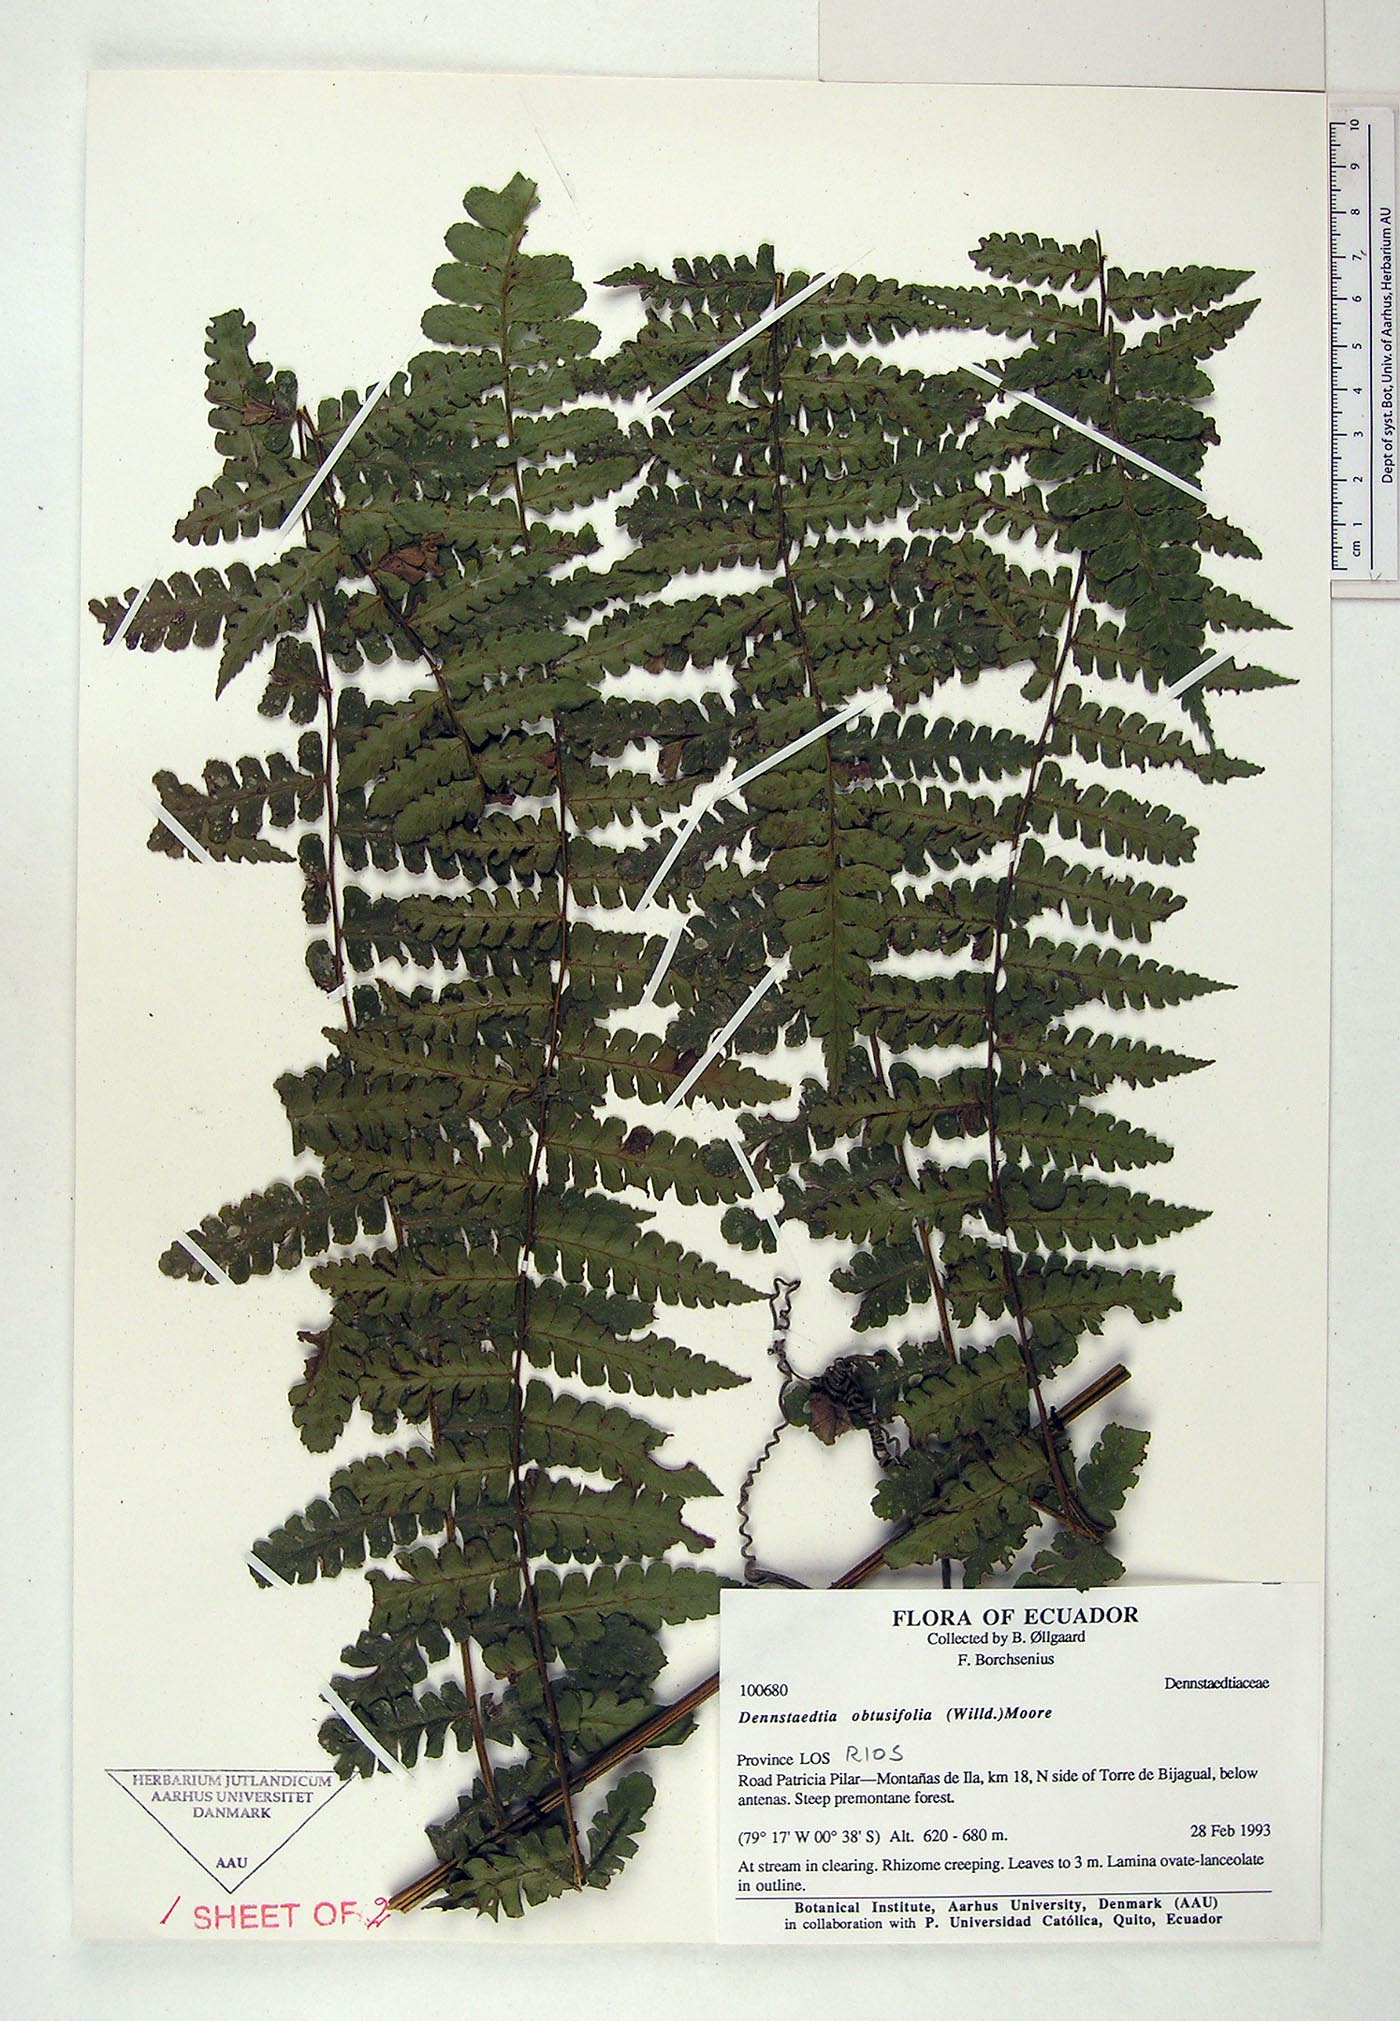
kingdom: Plantae
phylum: Tracheophyta
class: Polypodiopsida
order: Polypodiales
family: Dennstaedtiaceae
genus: Dennstaedtia
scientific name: Dennstaedtia obtusifolia
